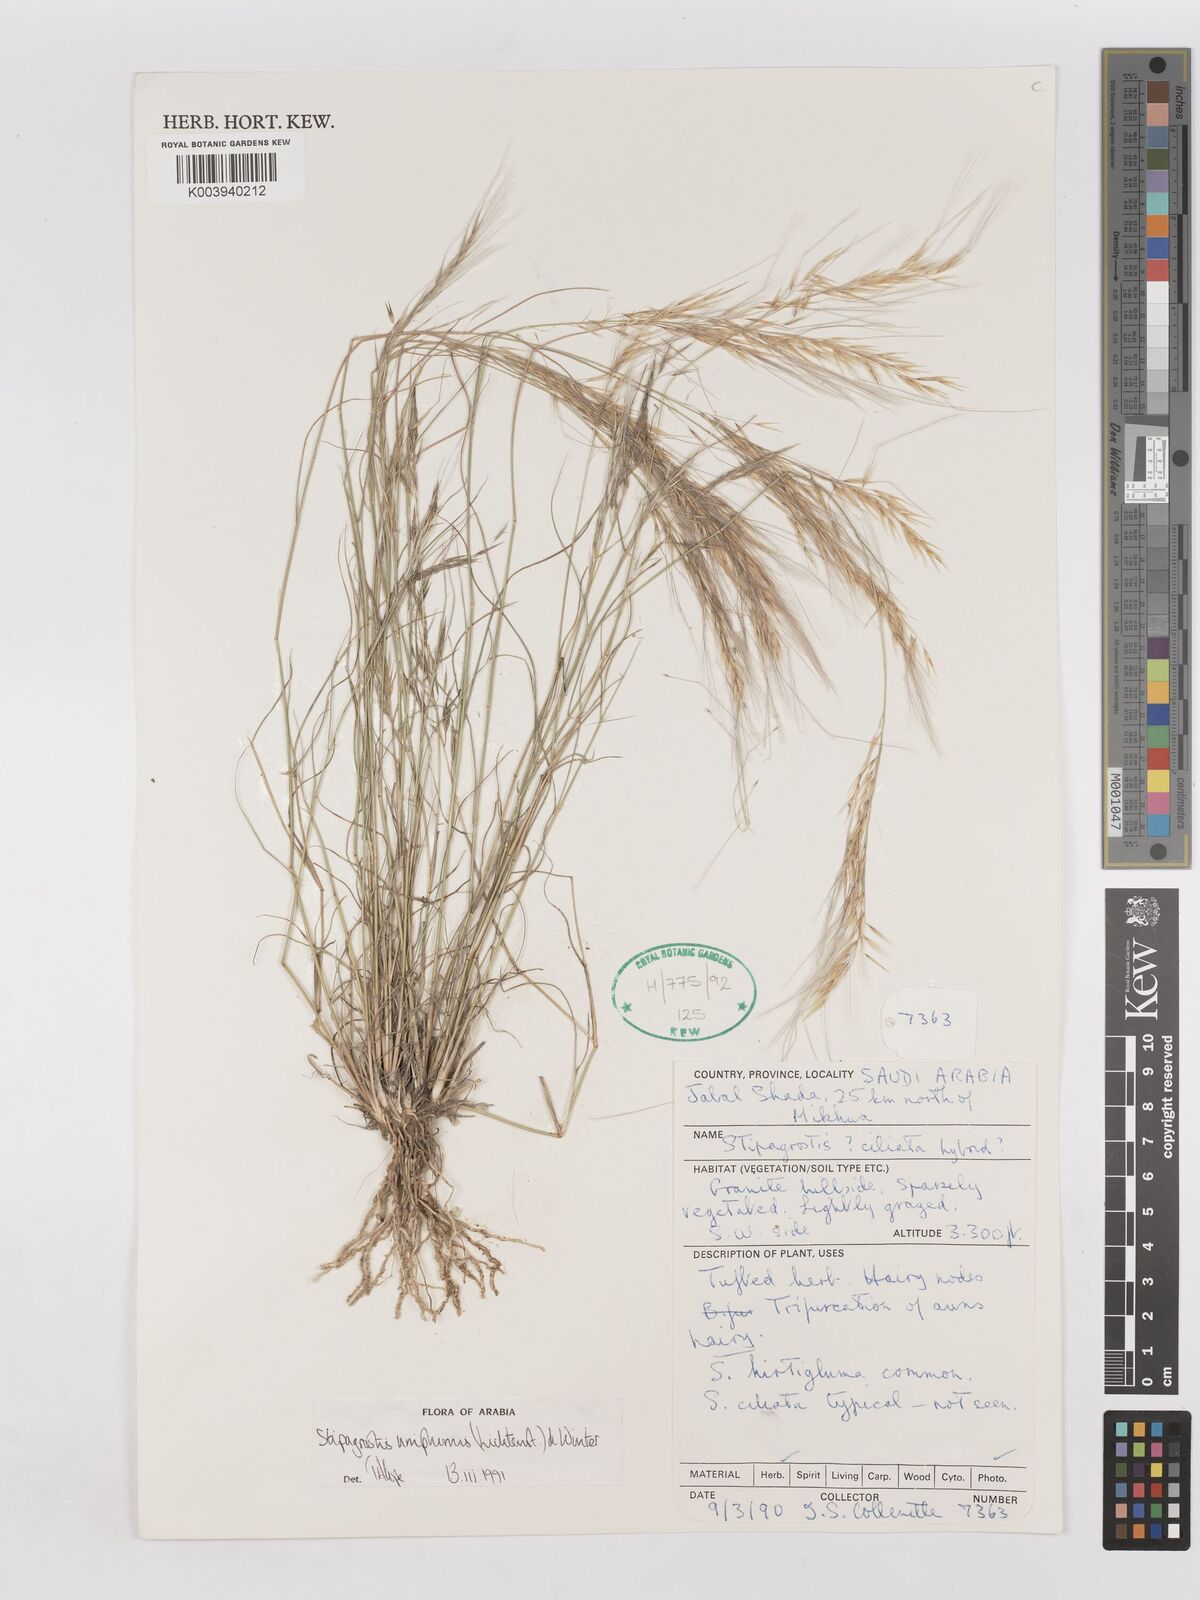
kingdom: Plantae
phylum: Tracheophyta
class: Liliopsida
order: Poales
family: Poaceae
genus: Stipagrostis
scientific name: Stipagrostis ciliata
